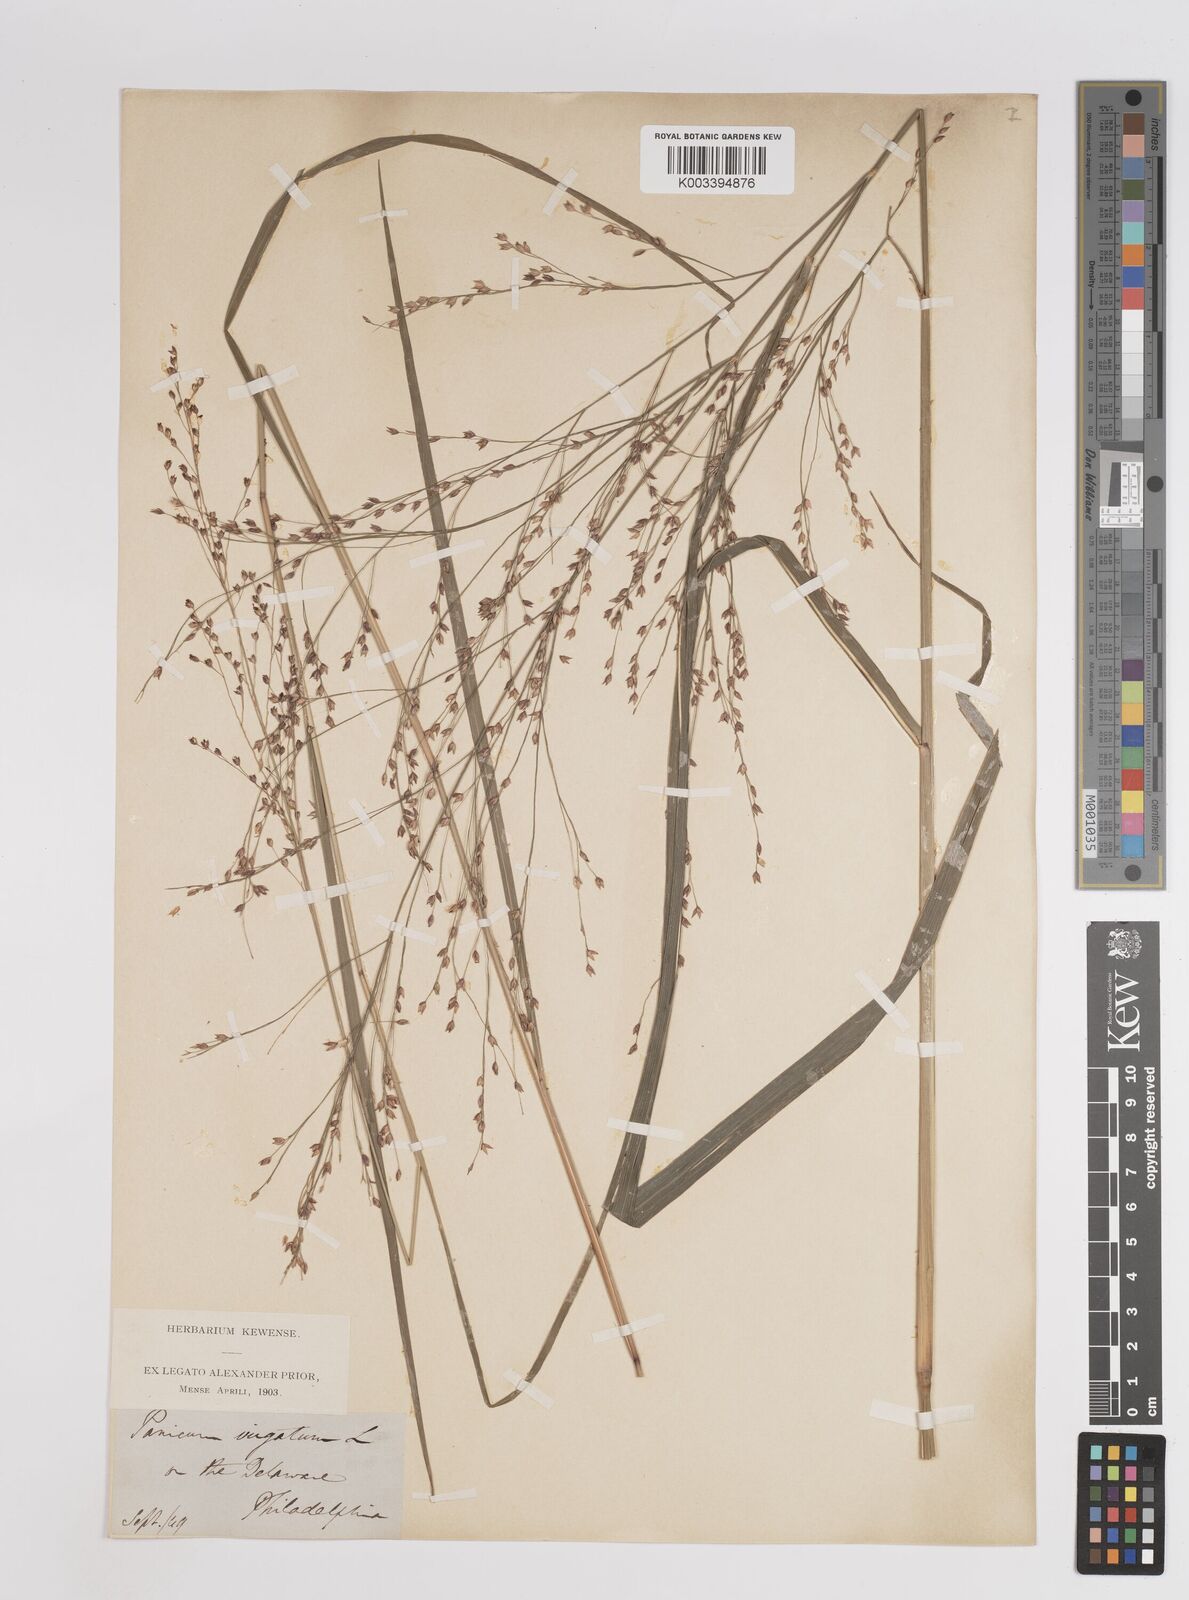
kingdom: Plantae
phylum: Tracheophyta
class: Liliopsida
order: Poales
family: Poaceae
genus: Panicum
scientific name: Panicum virgatum
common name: Switchgrass
